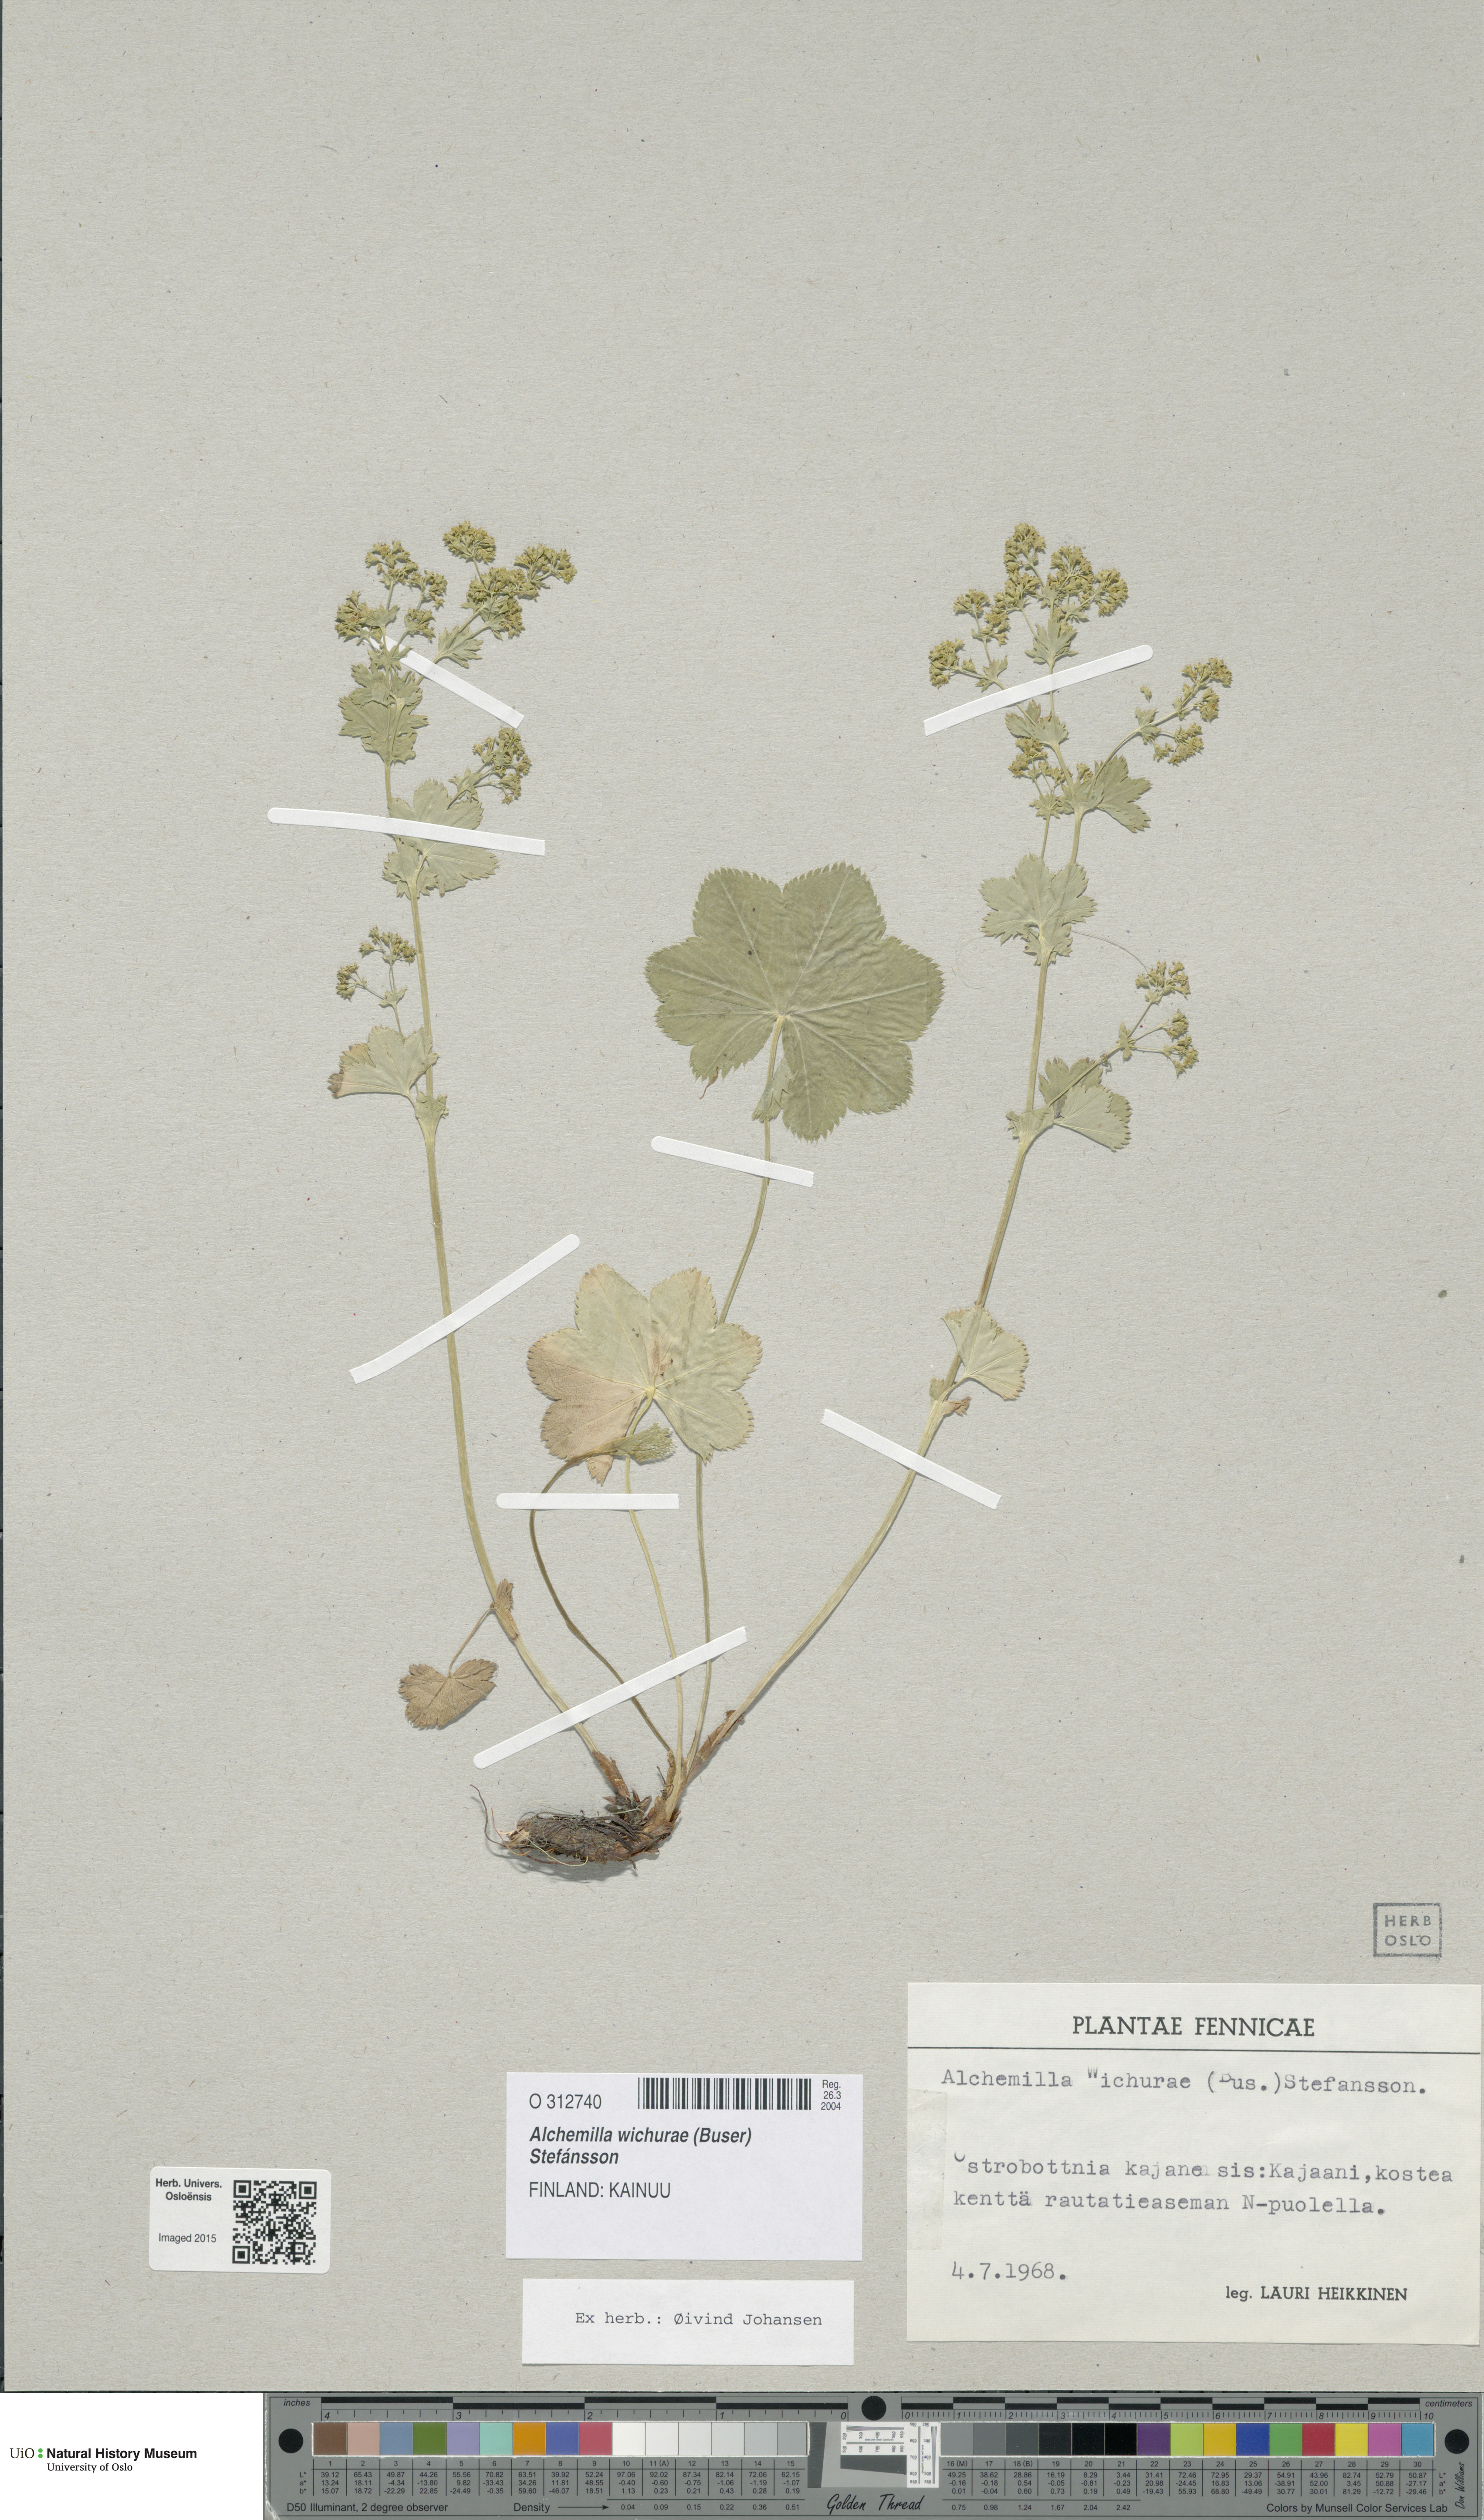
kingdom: Plantae
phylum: Tracheophyta
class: Magnoliopsida
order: Rosales
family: Rosaceae
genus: Alchemilla
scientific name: Alchemilla wichurae
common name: Rock lady's mantle
